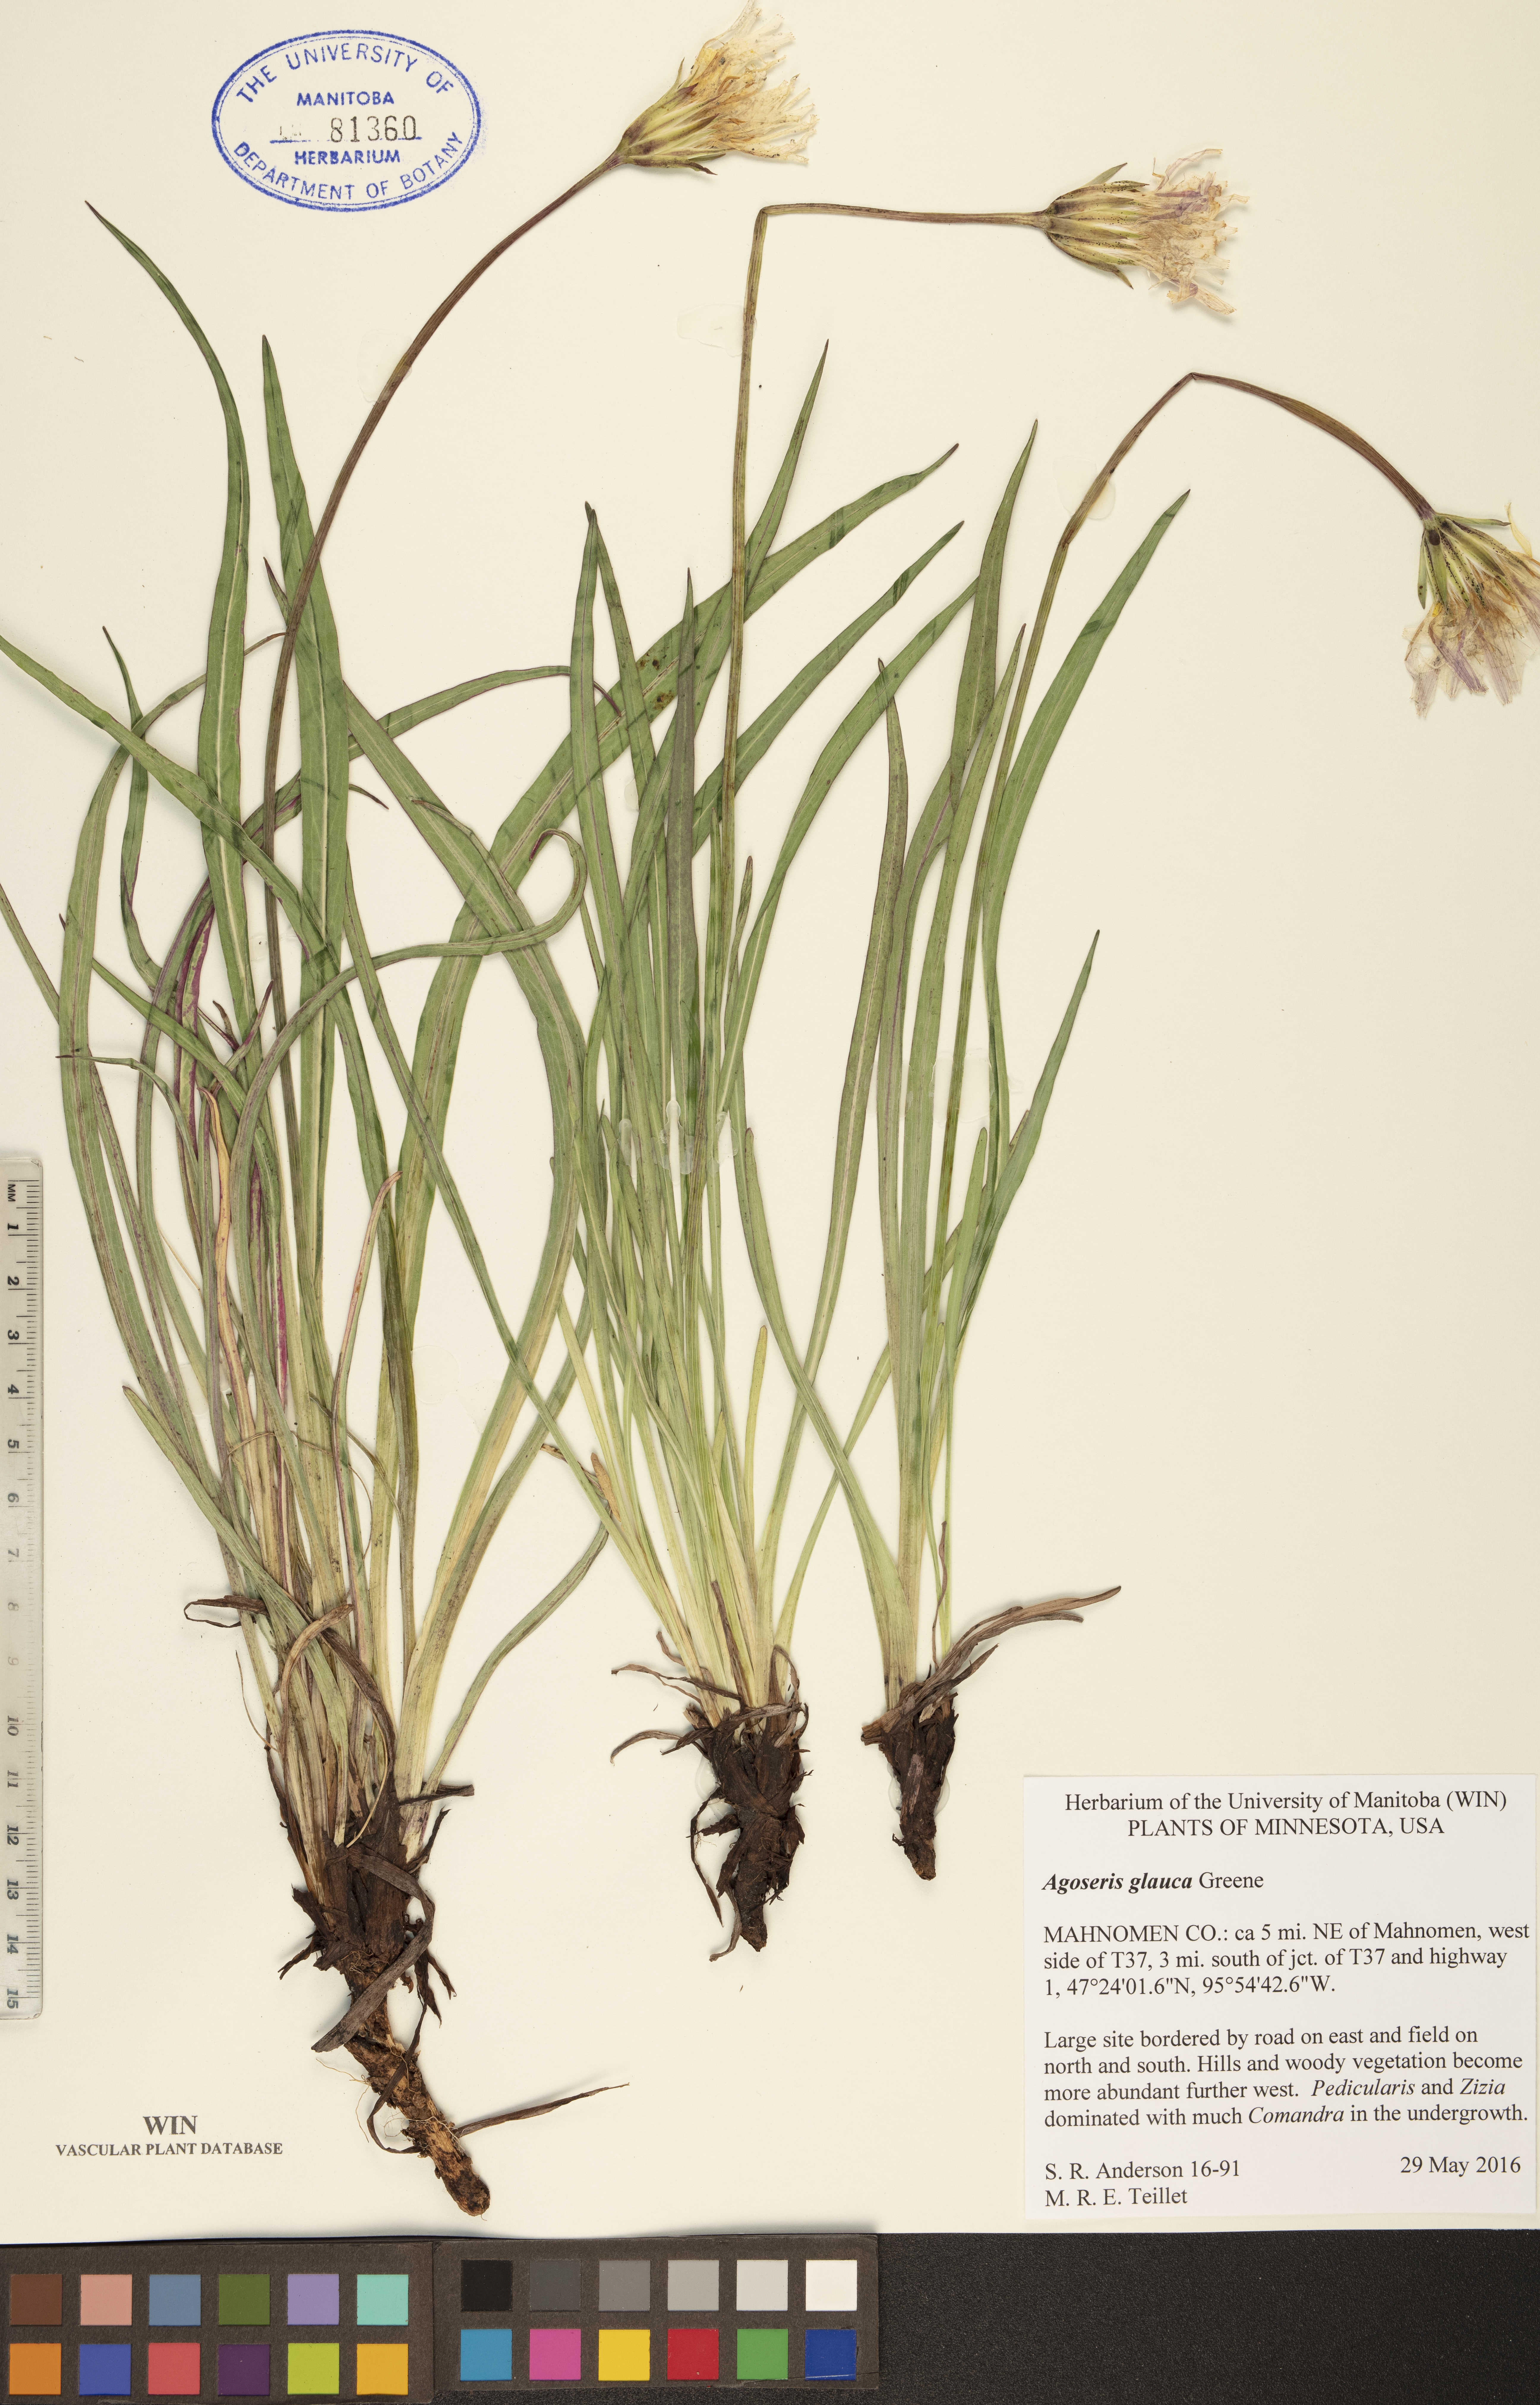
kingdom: Plantae
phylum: Tracheophyta
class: Magnoliopsida
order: Asterales
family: Asteraceae
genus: Agoseris
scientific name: Agoseris glauca
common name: Prairie agoseris
